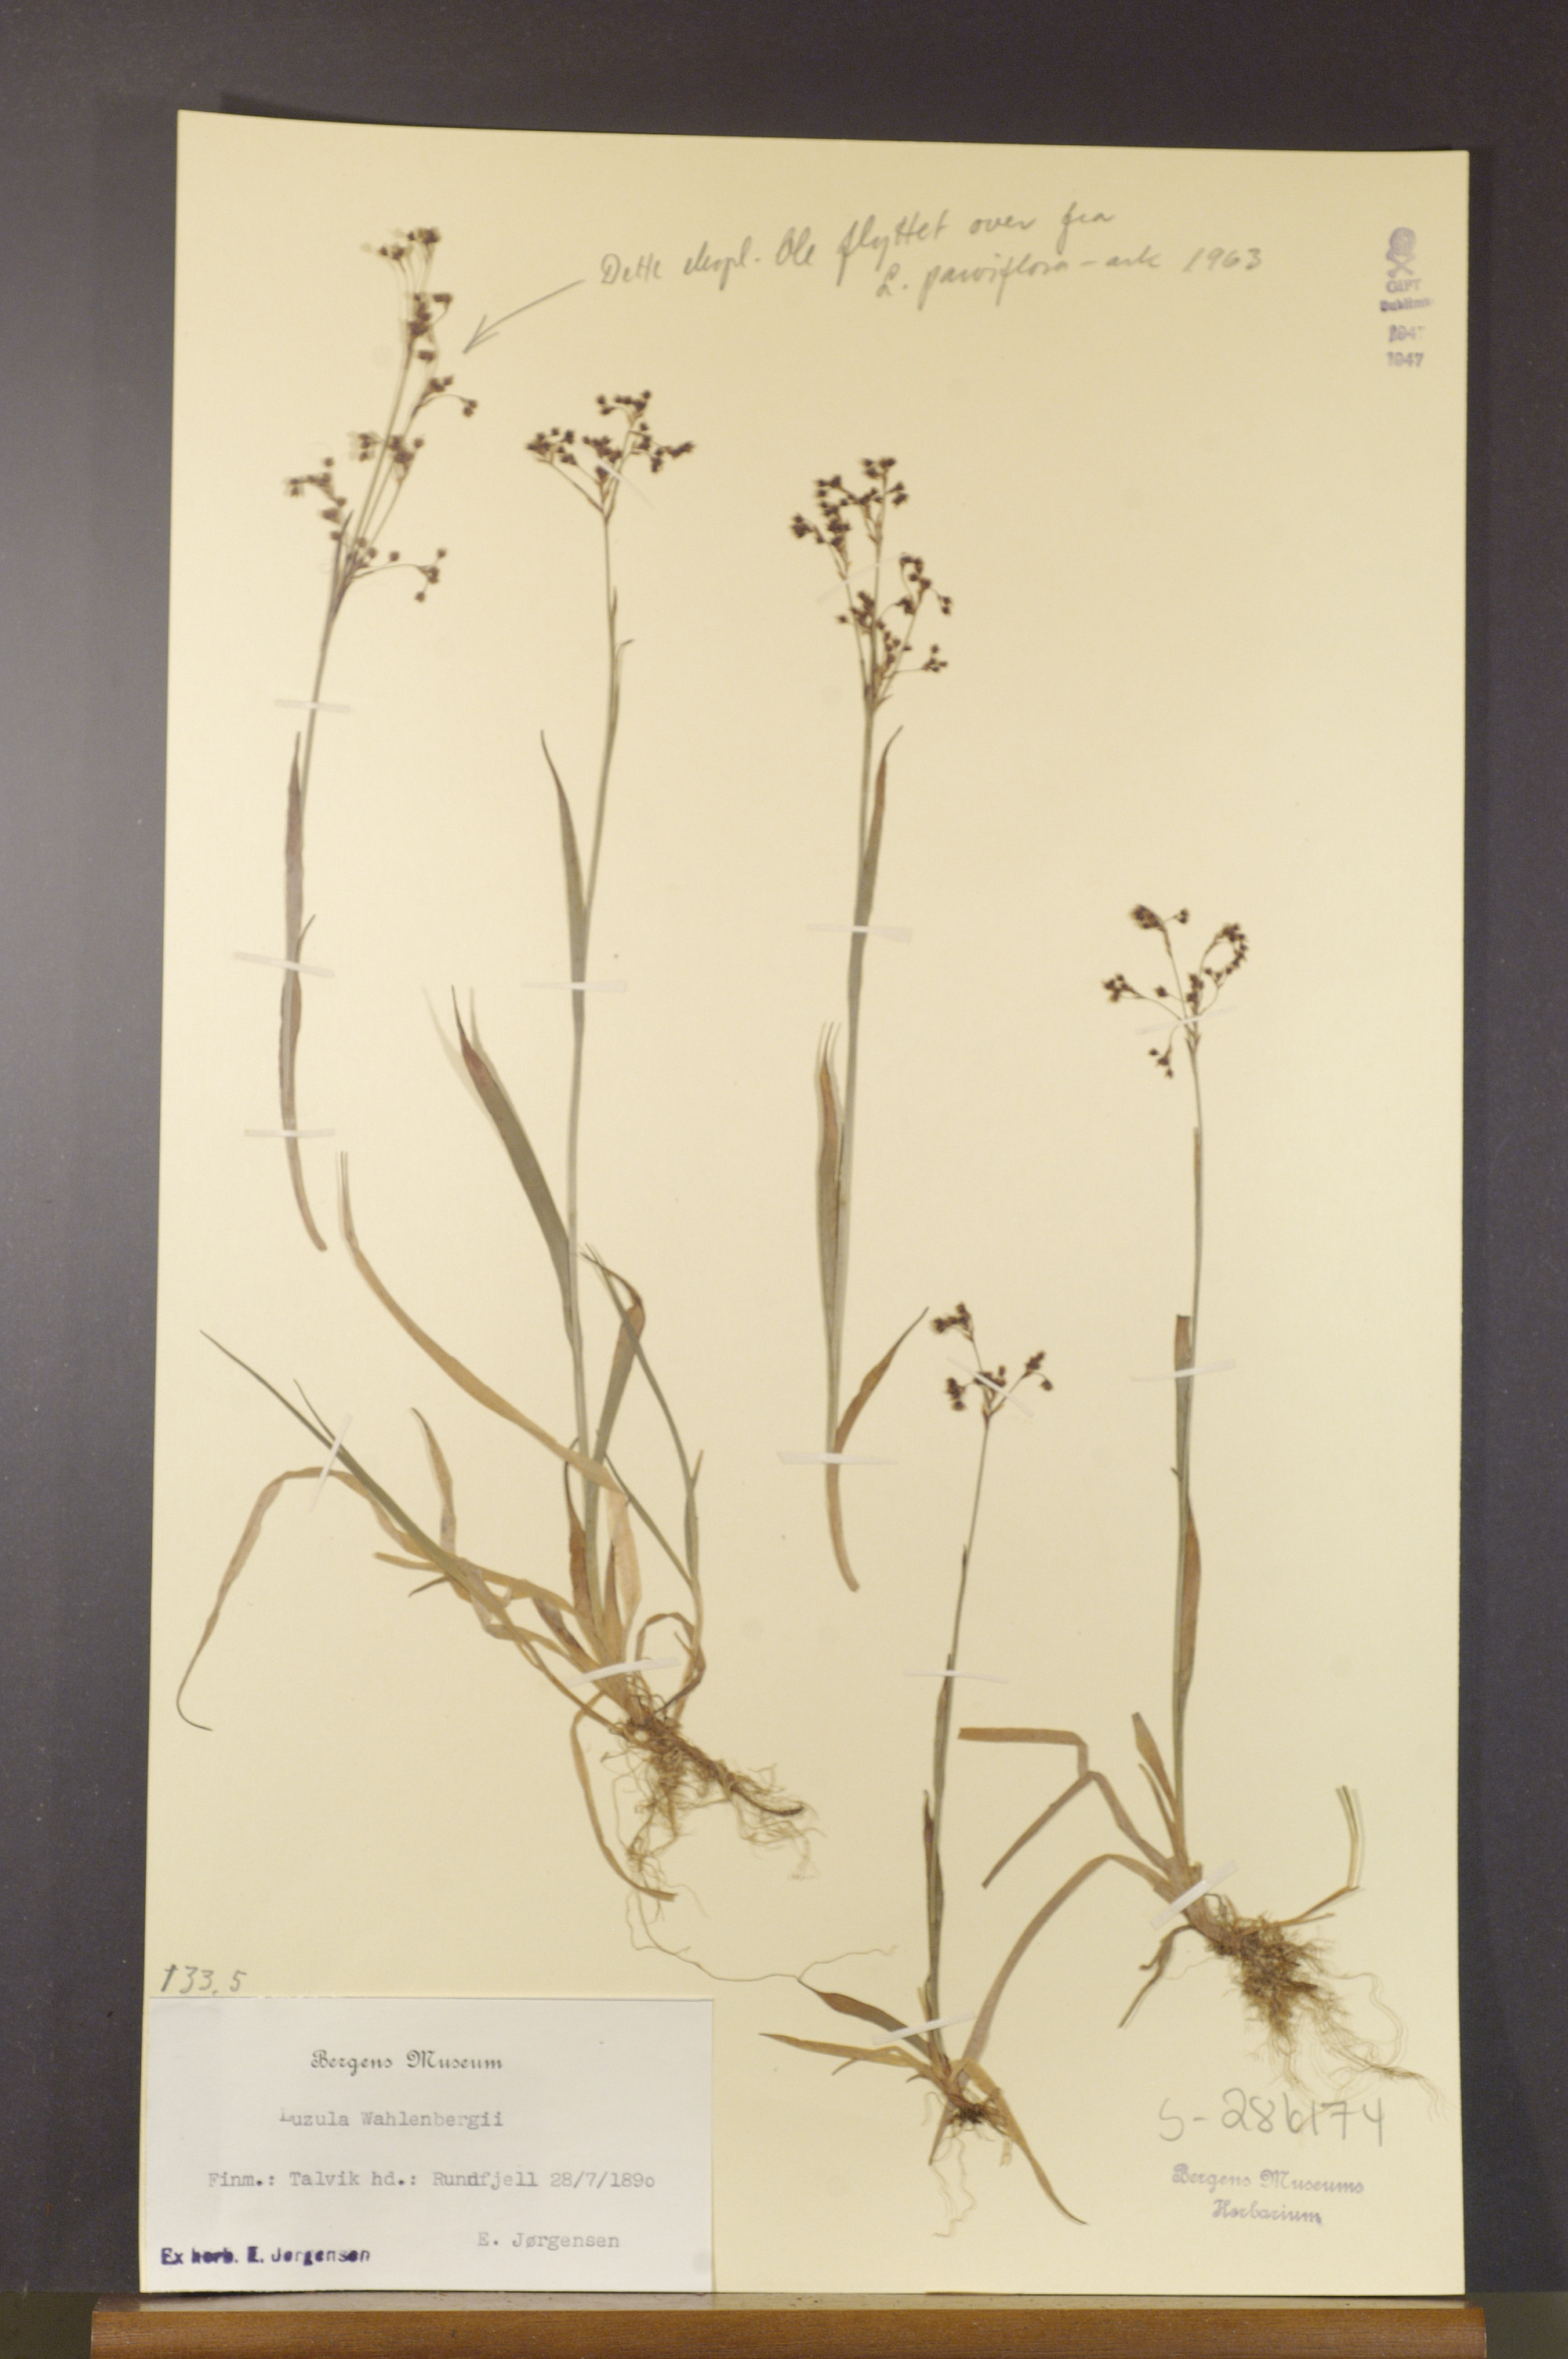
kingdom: Plantae
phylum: Tracheophyta
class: Liliopsida
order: Poales
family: Juncaceae
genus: Luzula
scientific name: Luzula wahlenbergii
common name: Wahlenberg's wood-rush
